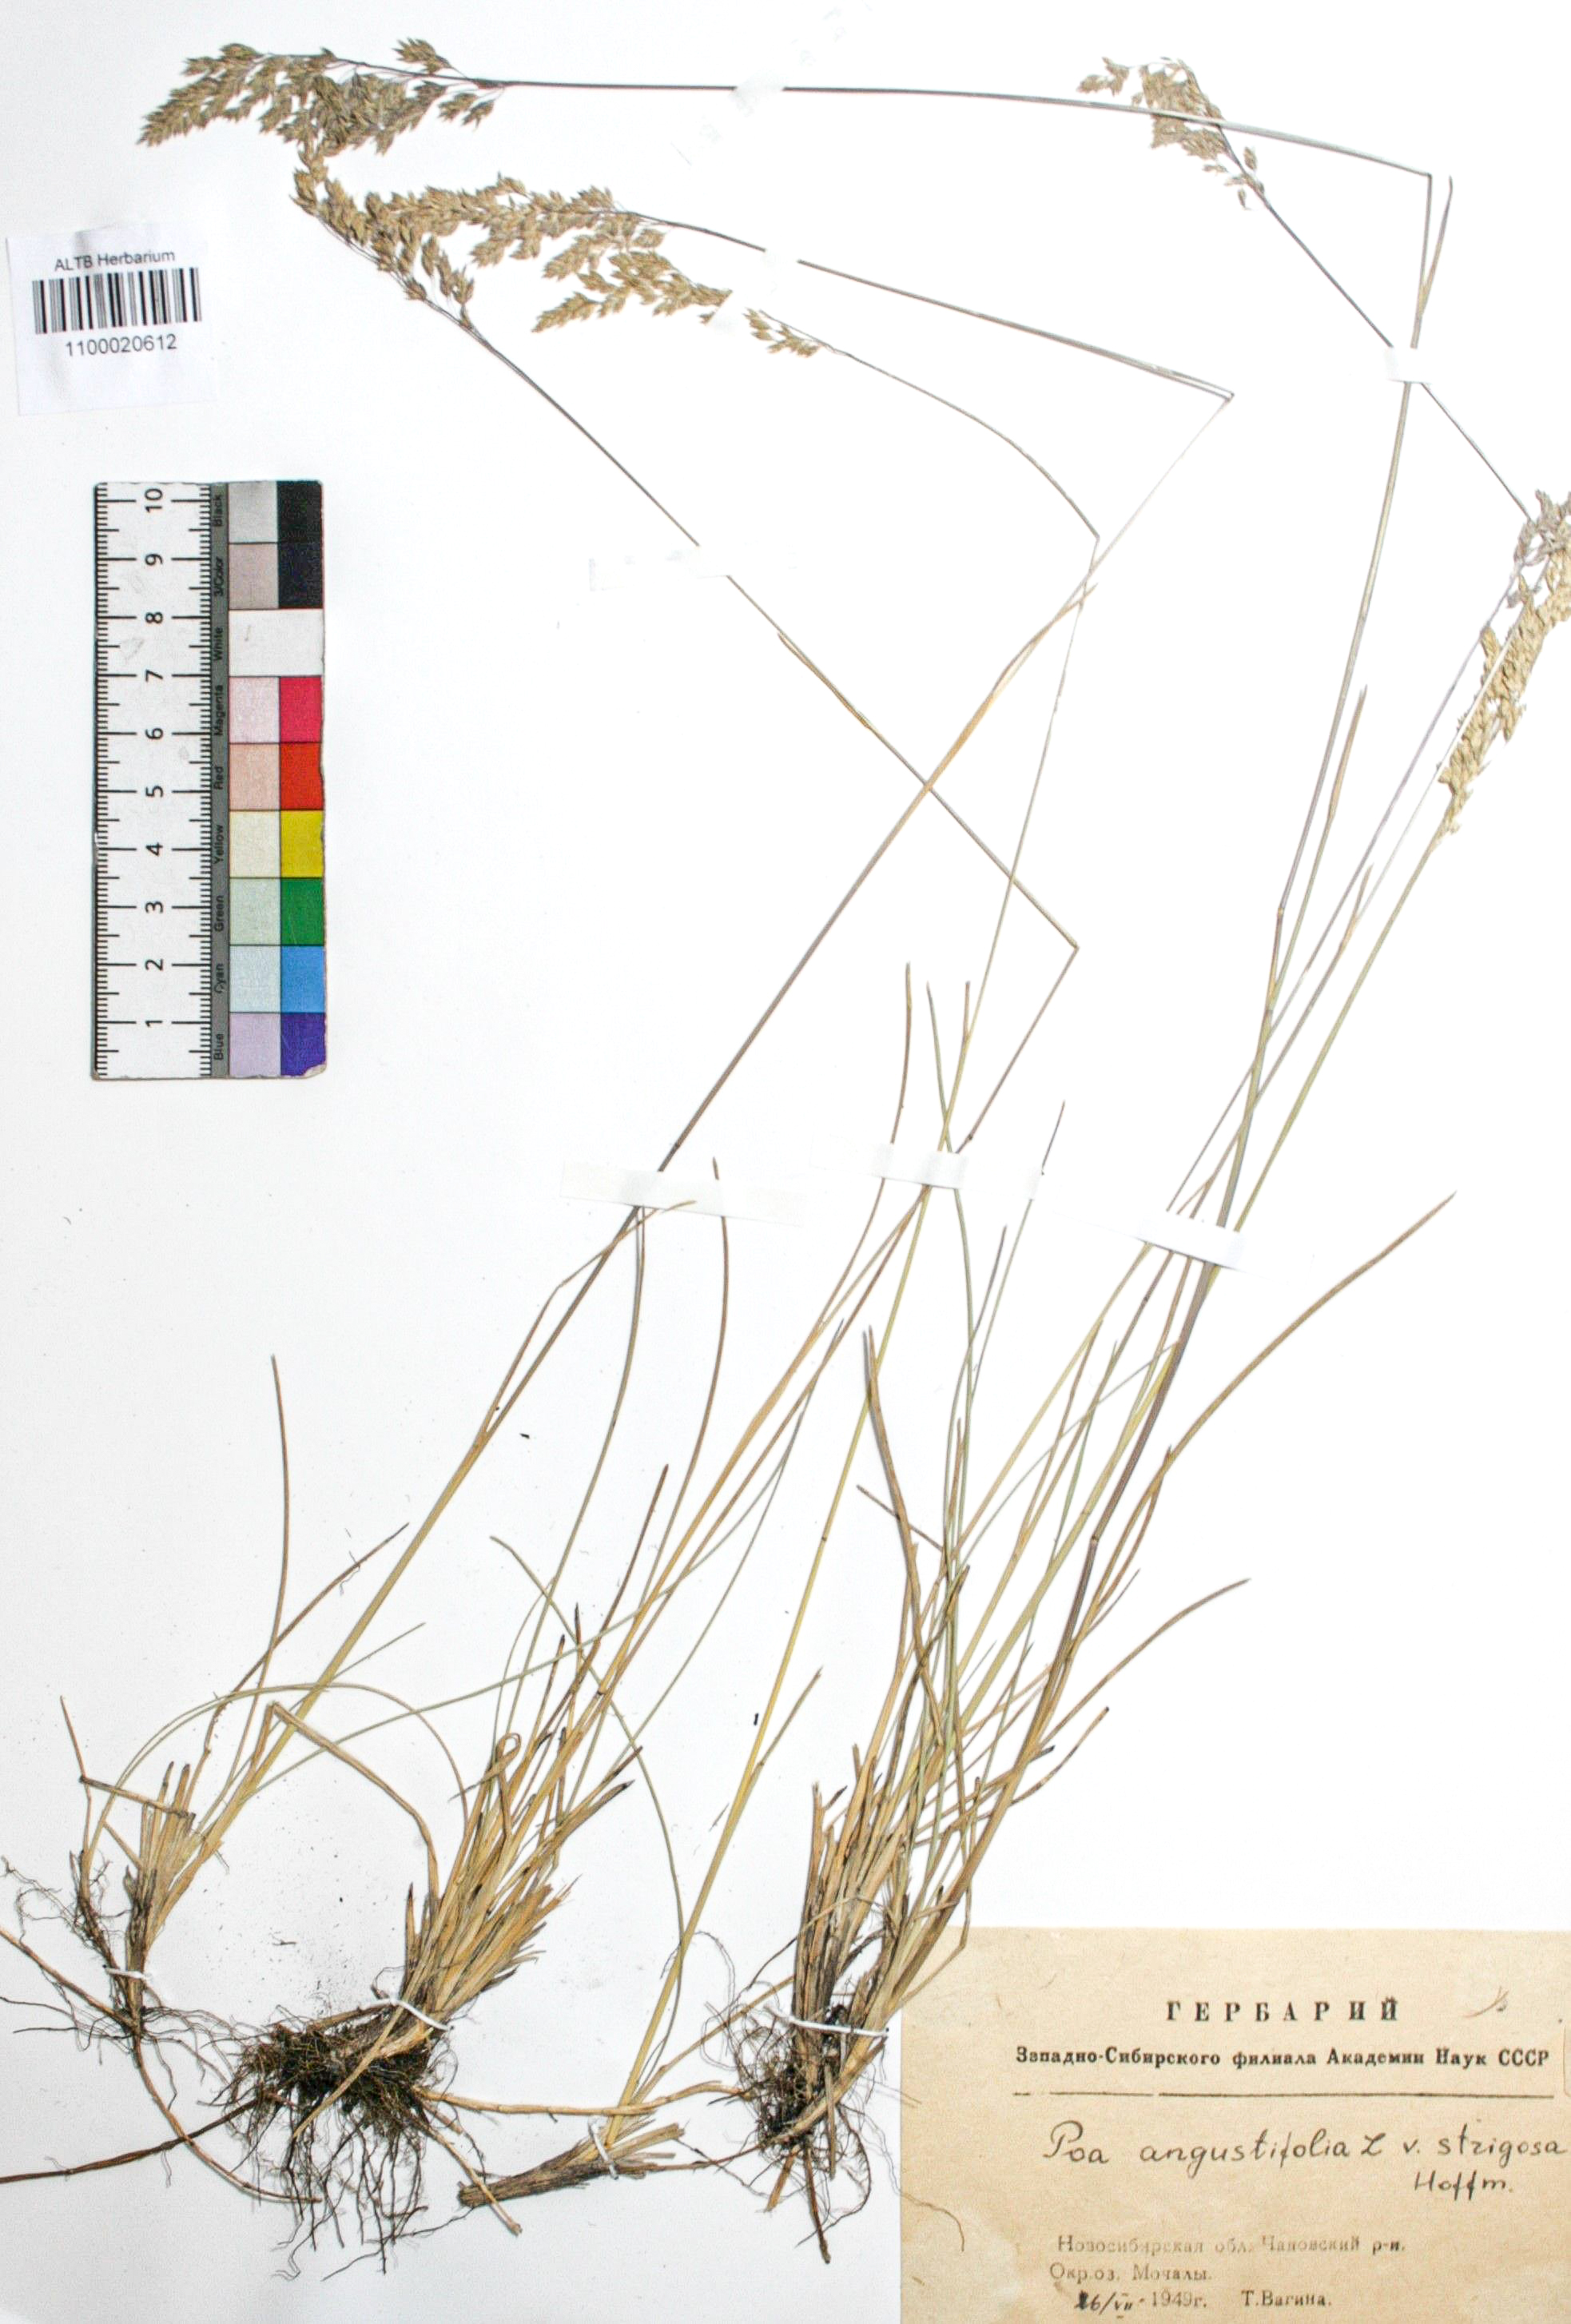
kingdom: Plantae
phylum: Tracheophyta
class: Liliopsida
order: Poales
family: Poaceae
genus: Poa
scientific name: Poa angustifolia
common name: Narrow-leaved meadow-grass
